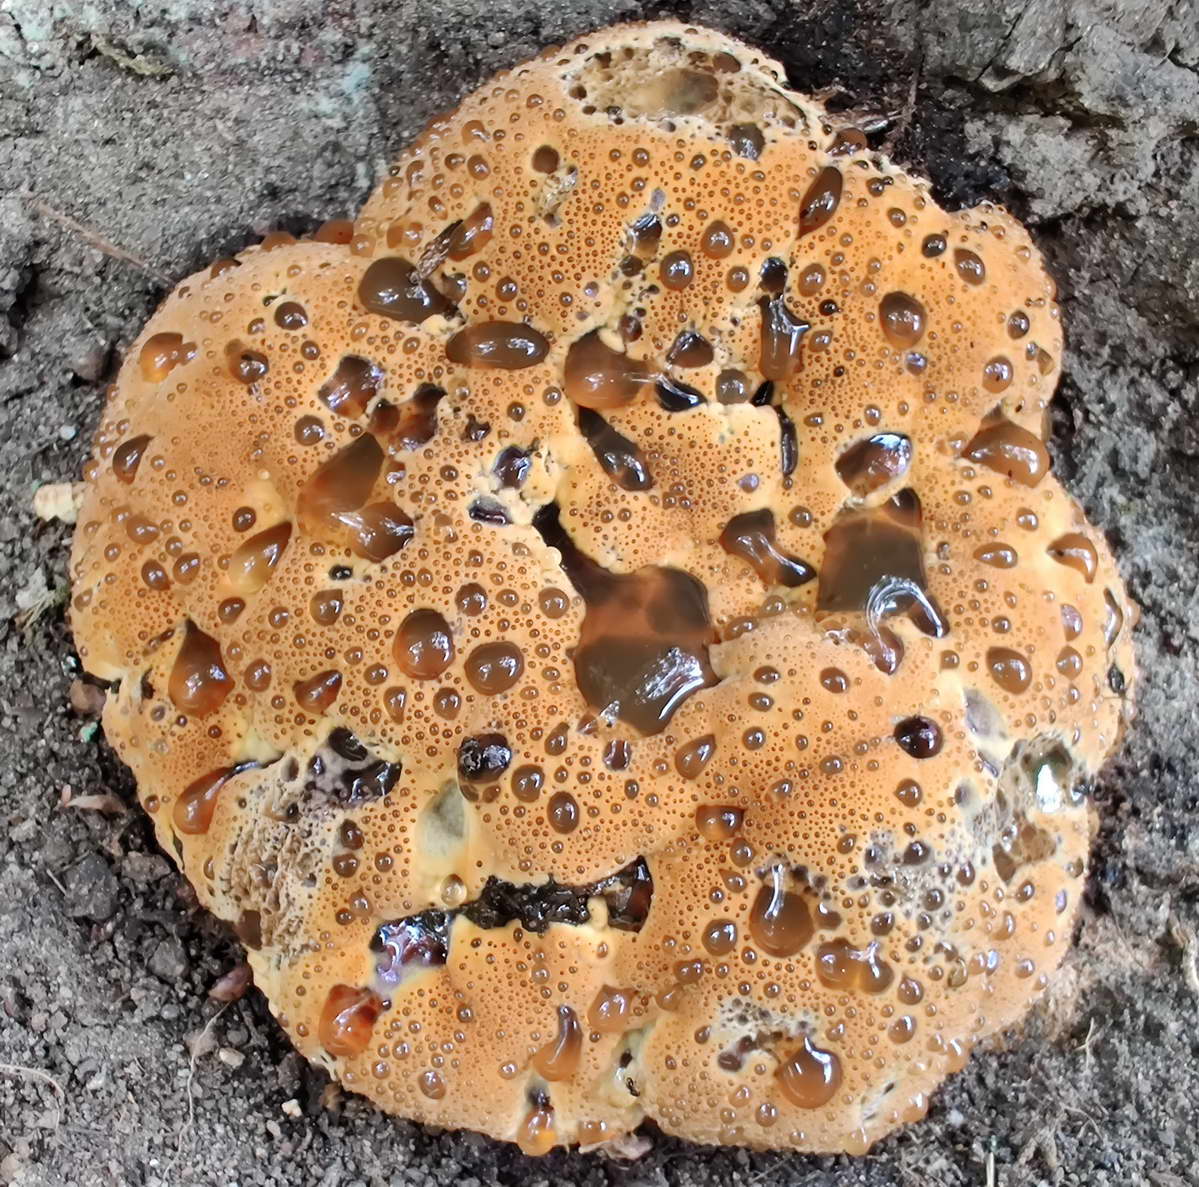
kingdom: Fungi
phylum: Basidiomycota
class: Agaricomycetes
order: Hymenochaetales
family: Hymenochaetaceae
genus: Pseudoinonotus
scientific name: Pseudoinonotus dryadeus
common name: ege-spejlporesvamp
